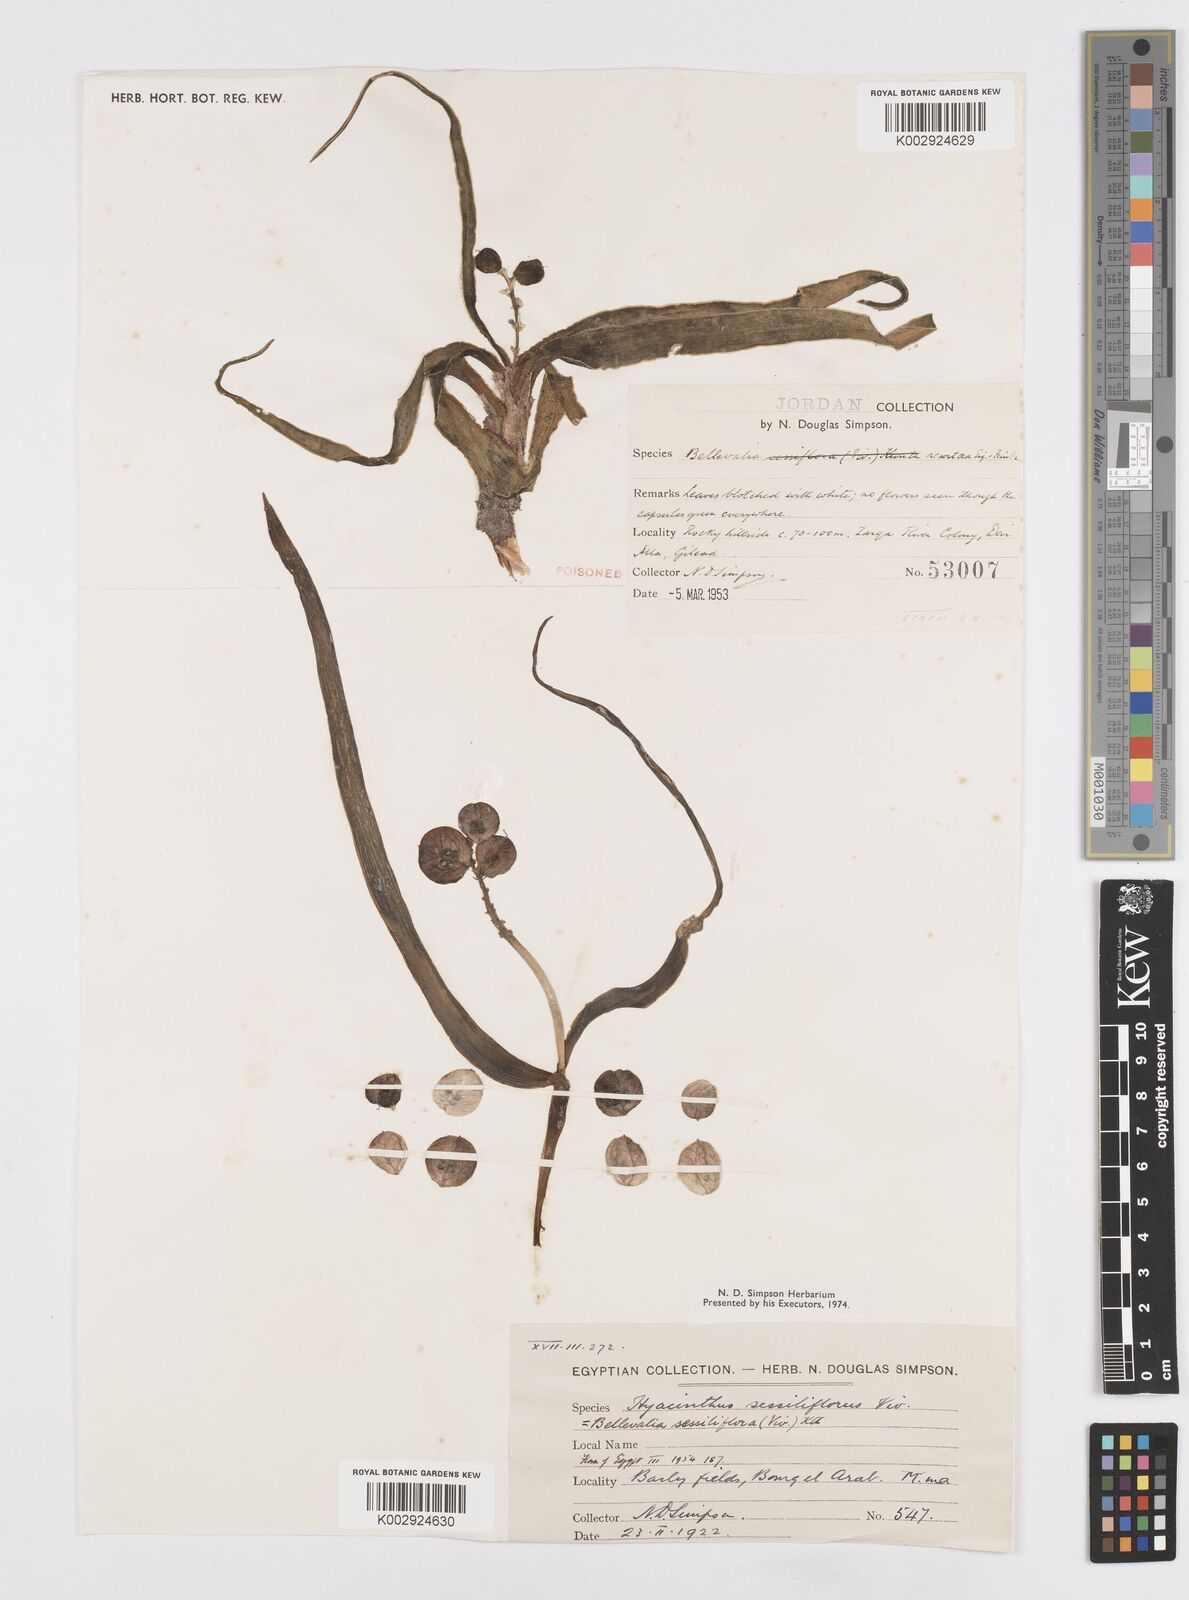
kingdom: Plantae
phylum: Tracheophyta
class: Liliopsida
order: Asparagales
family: Asparagaceae
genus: Bellevalia
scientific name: Bellevalia sessiliflora
